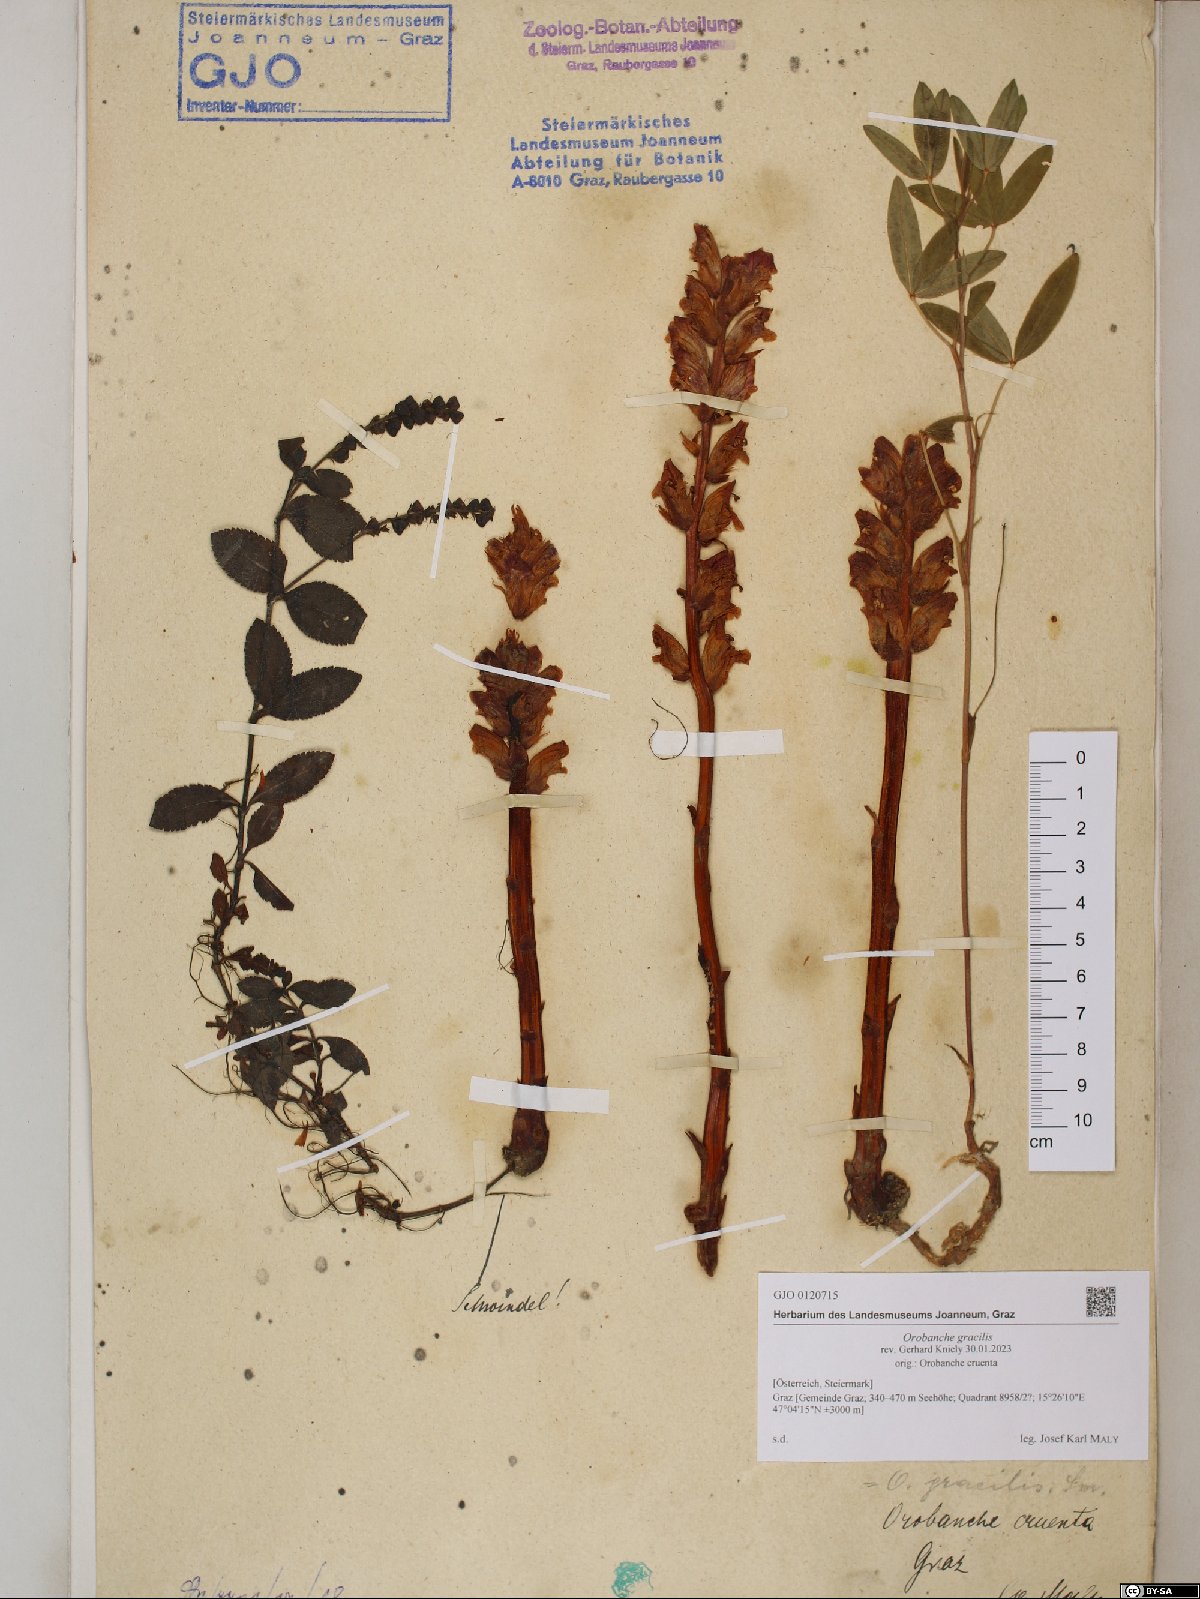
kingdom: Plantae
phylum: Tracheophyta
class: Magnoliopsida
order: Lamiales
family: Orobanchaceae
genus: Orobanche
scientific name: Orobanche gracilis
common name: Slender broomrape
